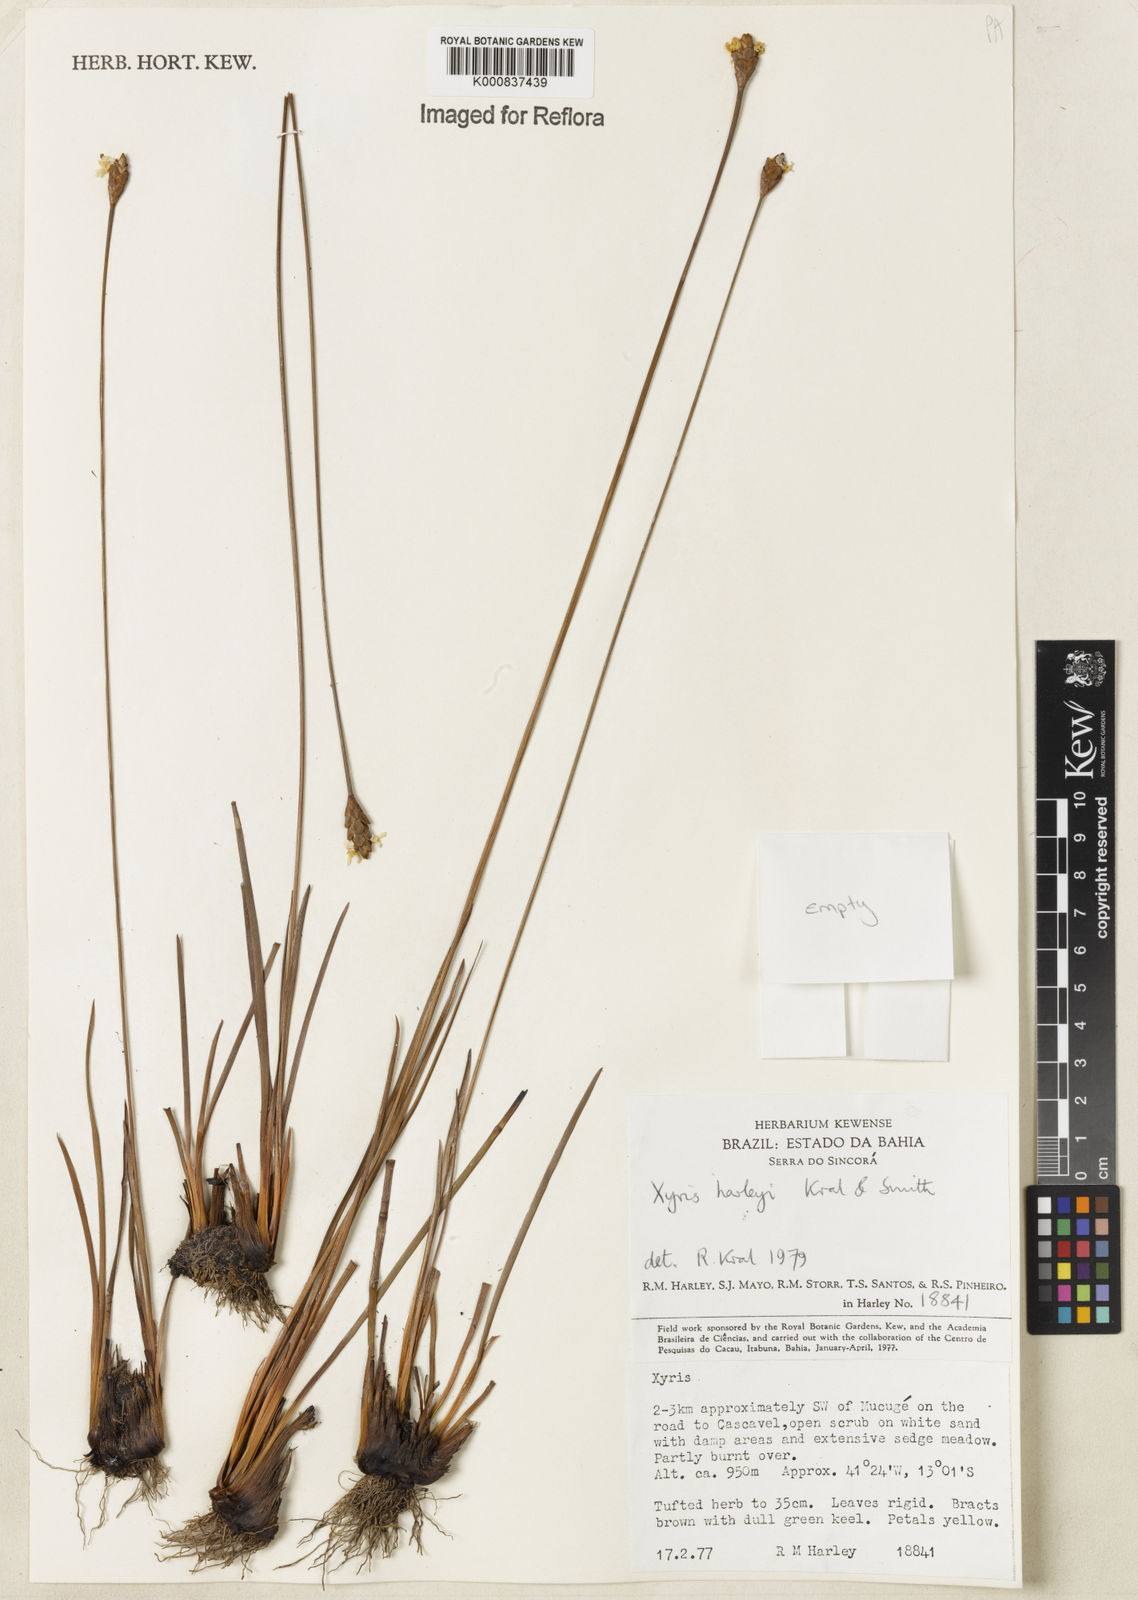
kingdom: Plantae
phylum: Tracheophyta
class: Liliopsida
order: Poales
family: Xyridaceae
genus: Xyris
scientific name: Xyris harleyi
